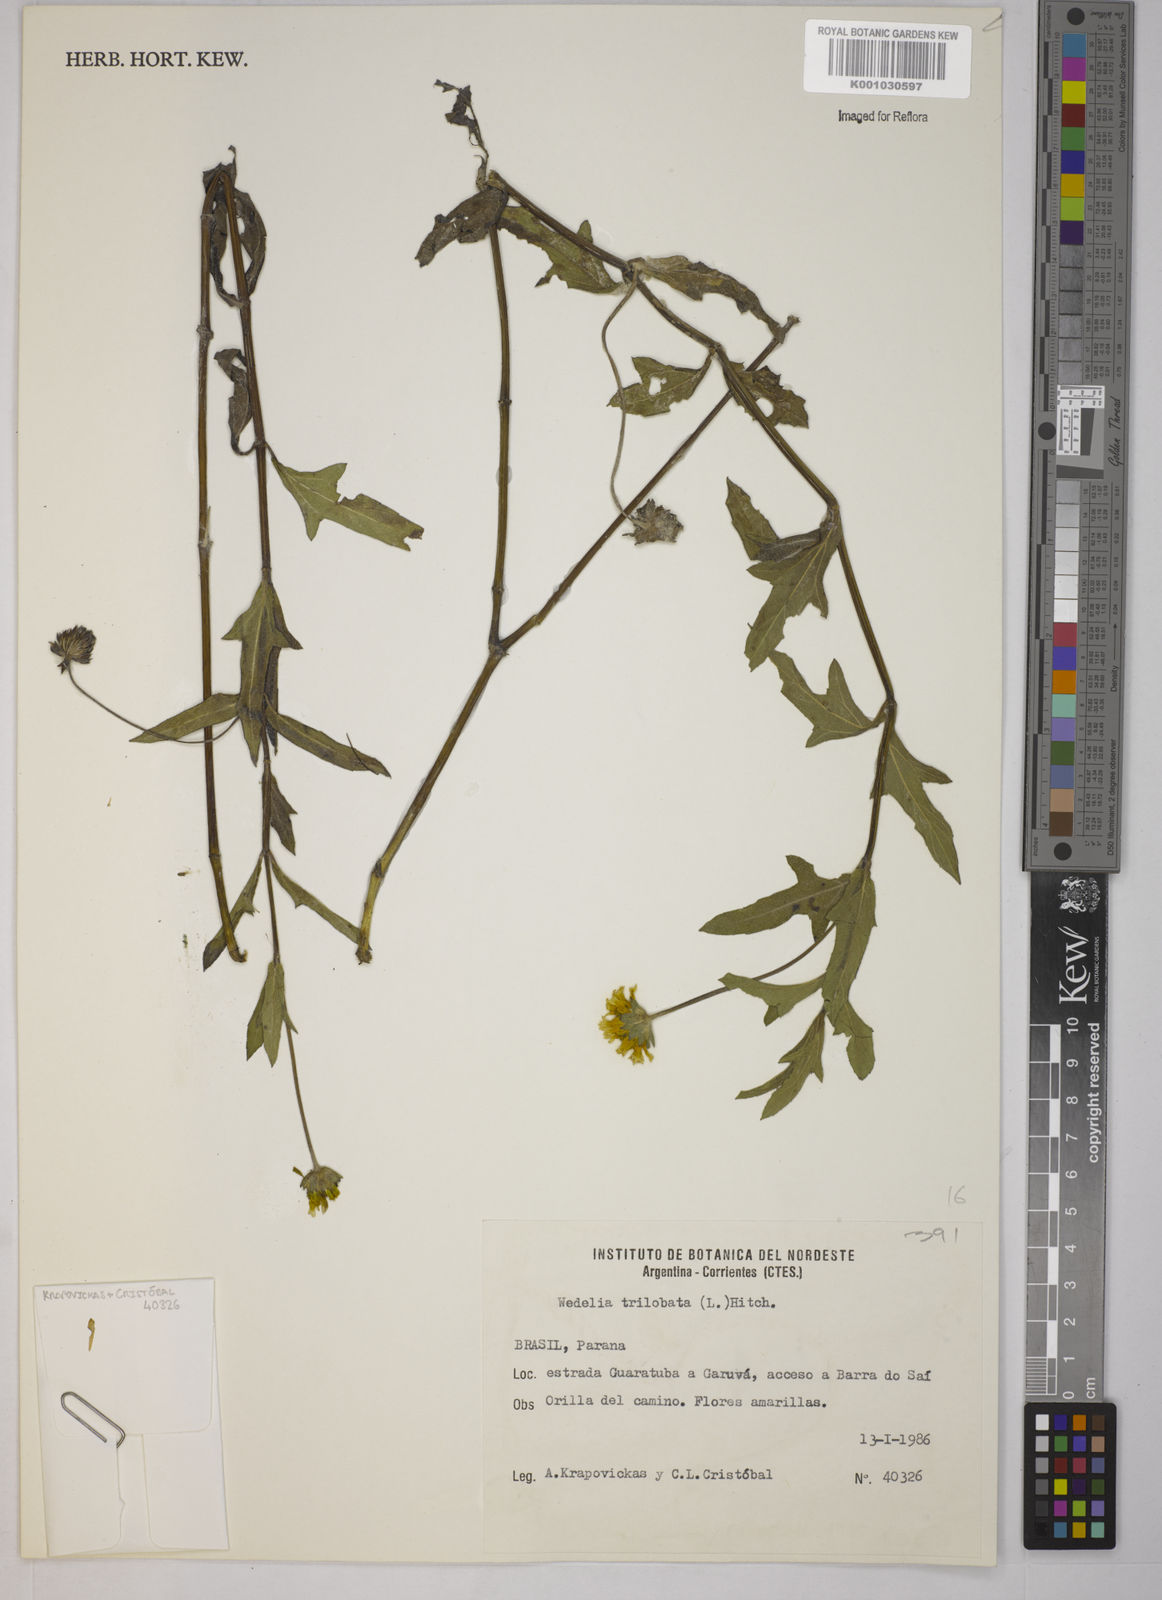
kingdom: Plantae
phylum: Tracheophyta
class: Magnoliopsida
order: Asterales
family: Asteraceae
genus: Sphagneticola
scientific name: Sphagneticola trilobata
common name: Bay biscayne creeping-oxeye
